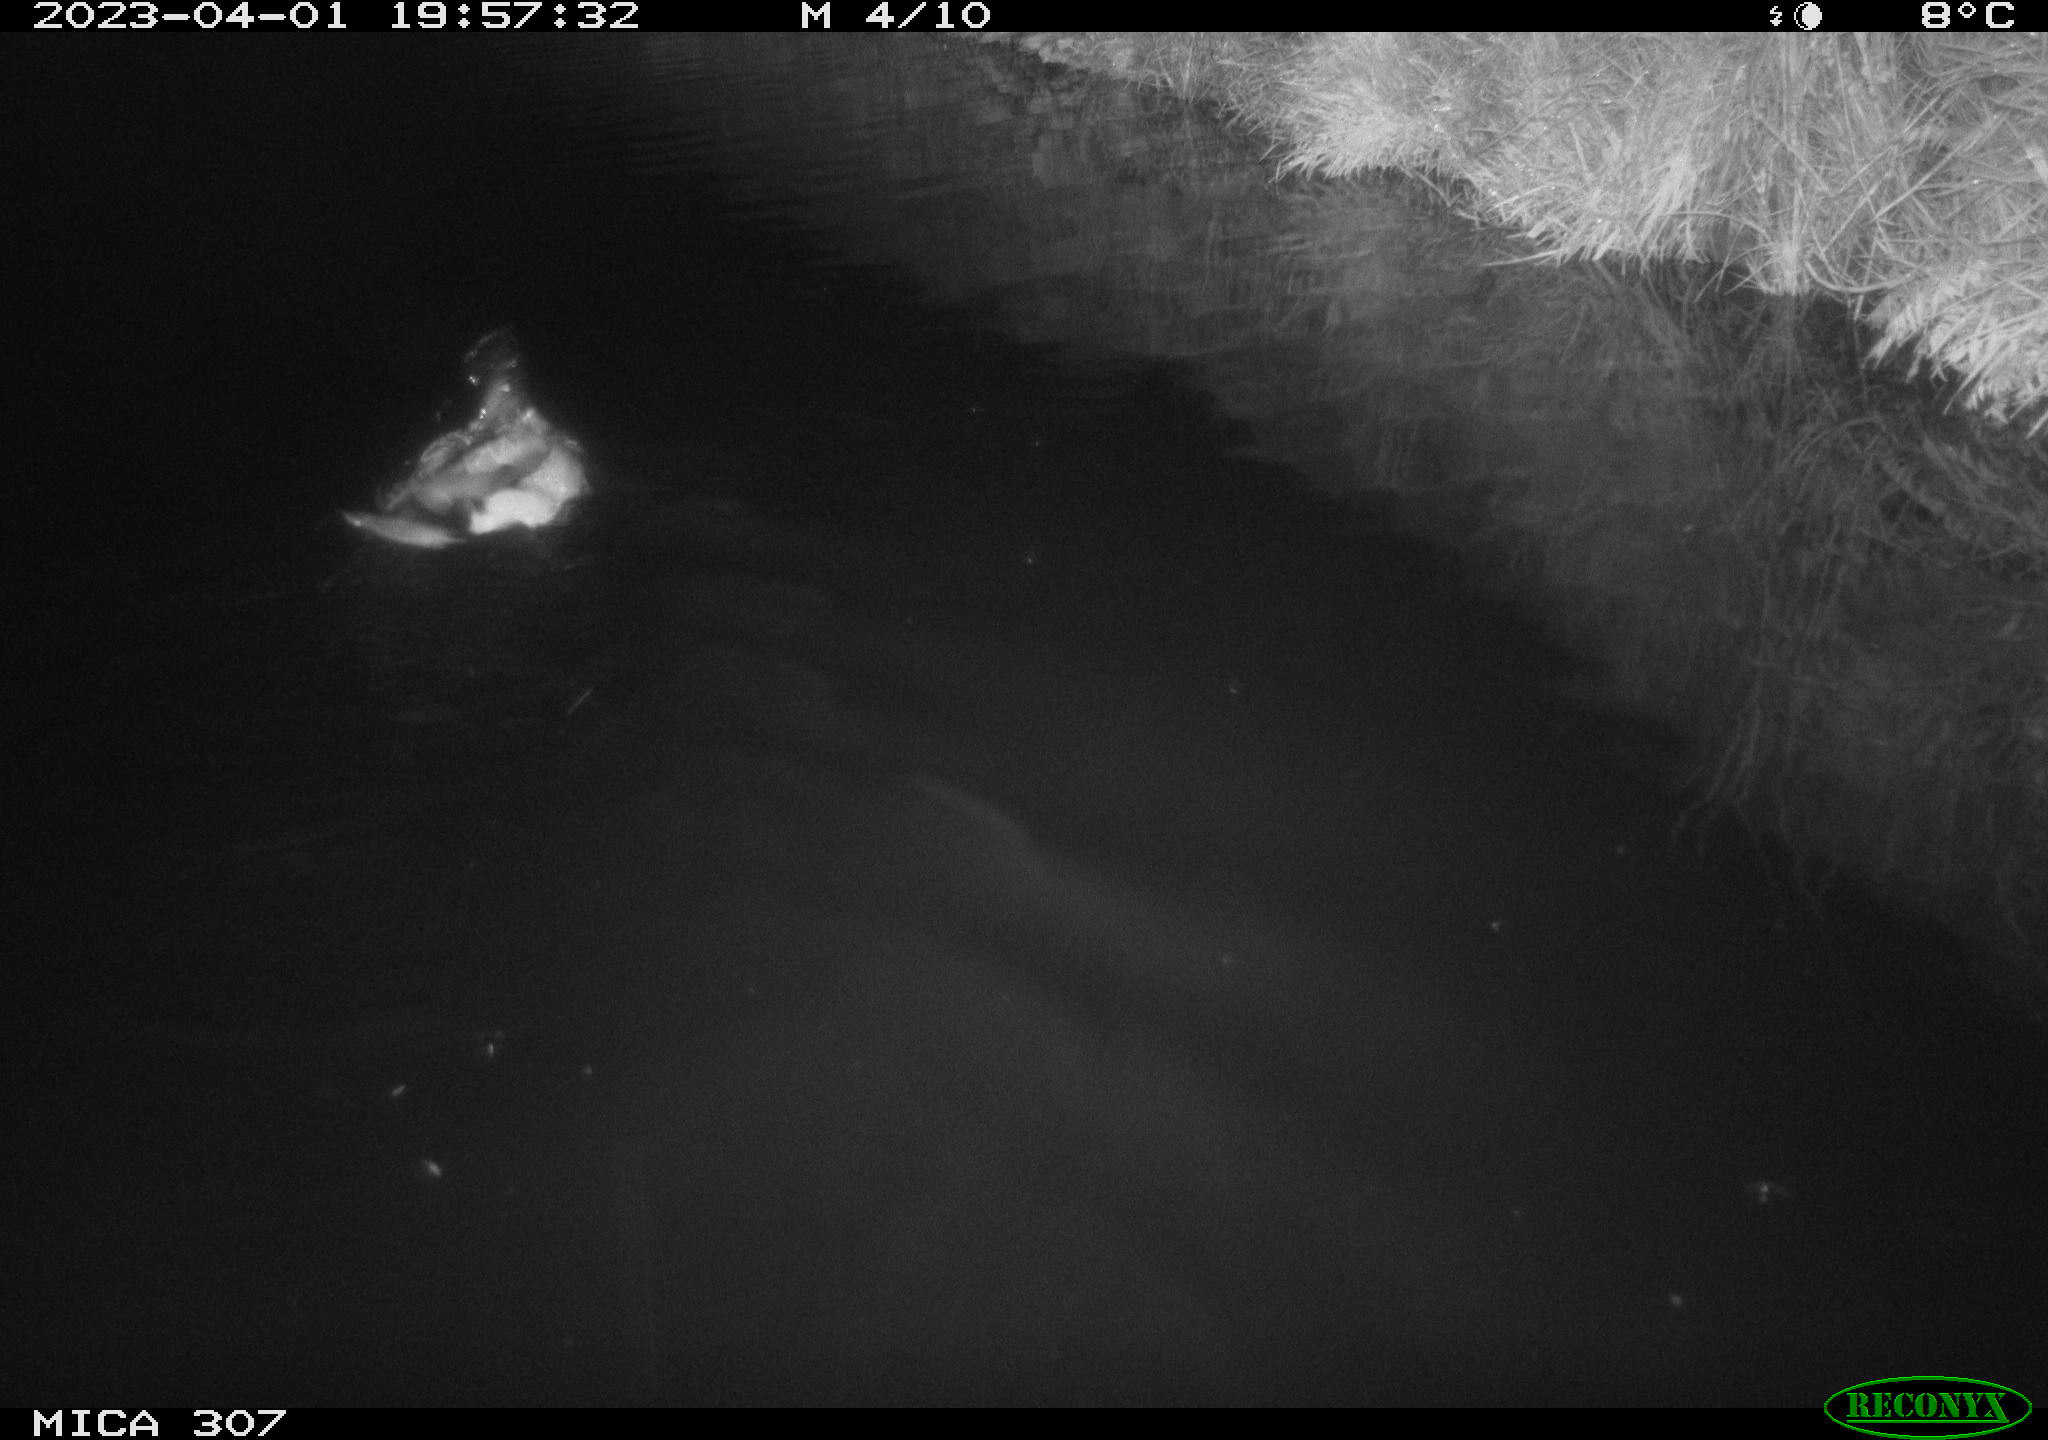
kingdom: Animalia
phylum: Chordata
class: Aves
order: Anseriformes
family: Anatidae
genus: Anas
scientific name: Anas
